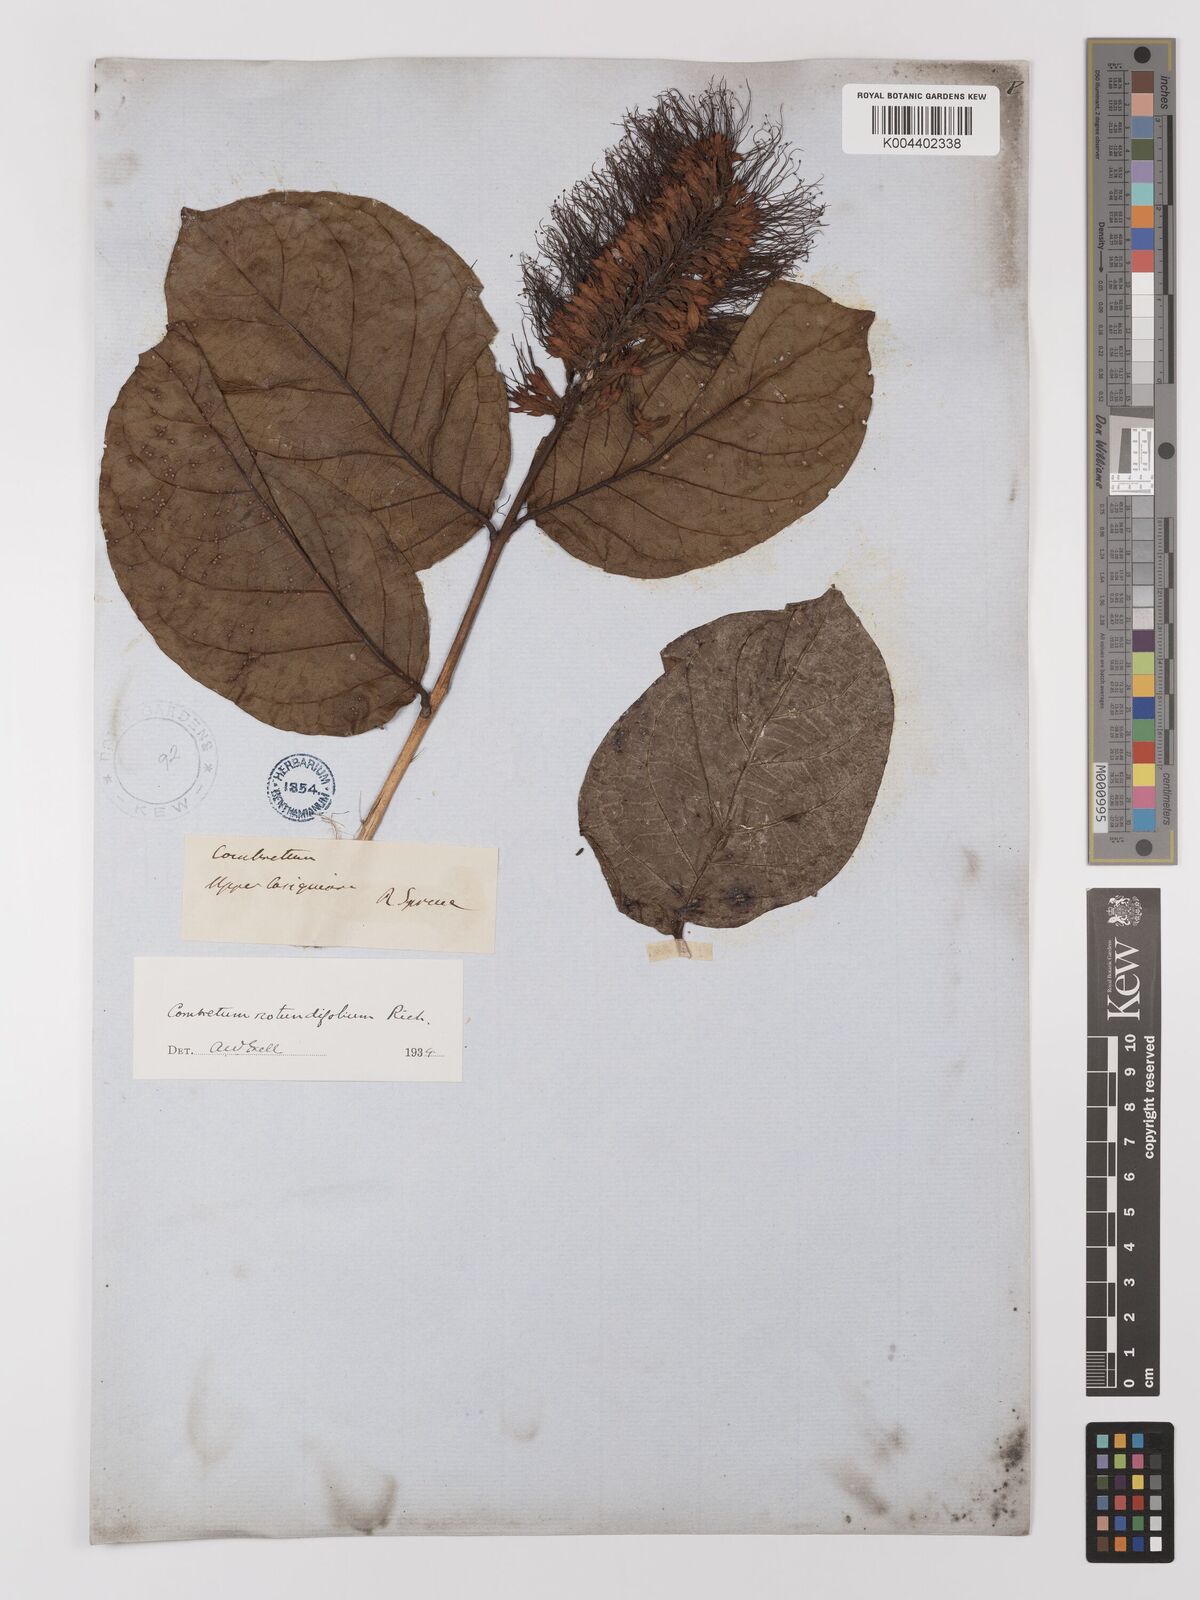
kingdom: Plantae
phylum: Tracheophyta
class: Magnoliopsida
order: Myrtales
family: Combretaceae
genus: Combretum
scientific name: Combretum
